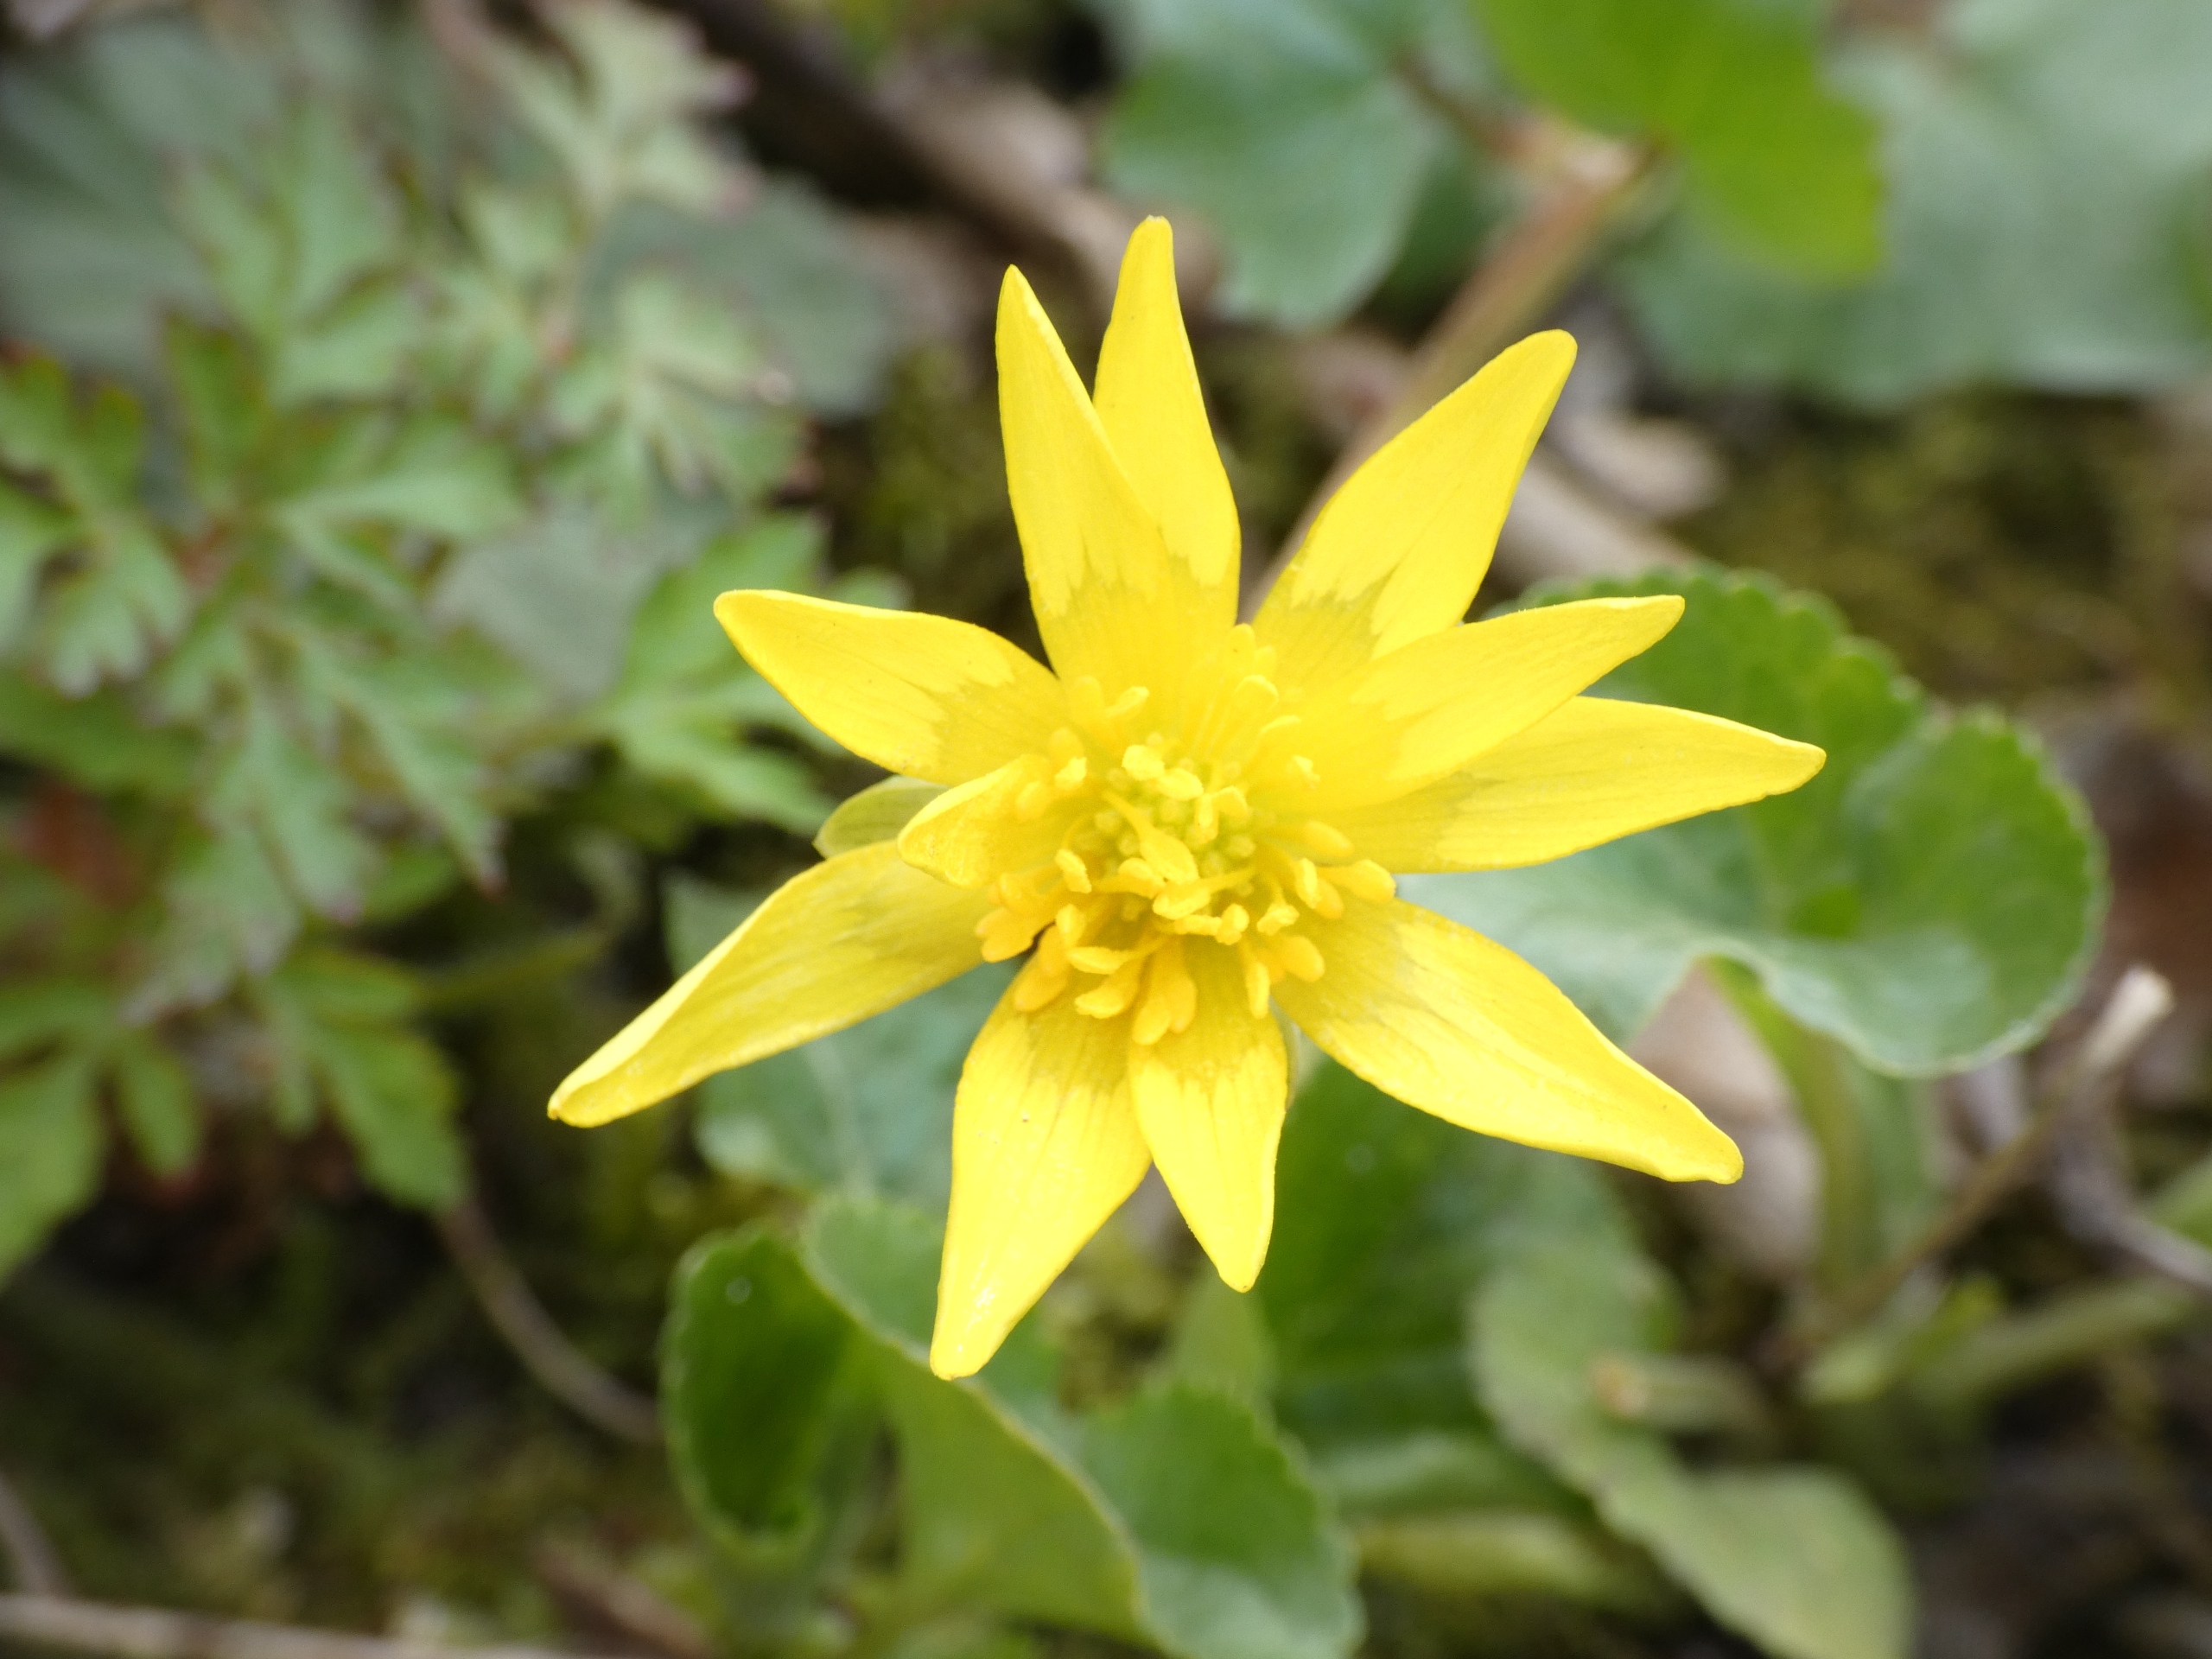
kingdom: Plantae
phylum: Tracheophyta
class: Magnoliopsida
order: Ranunculales
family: Ranunculaceae
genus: Ficaria
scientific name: Ficaria verna
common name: Vorterod
